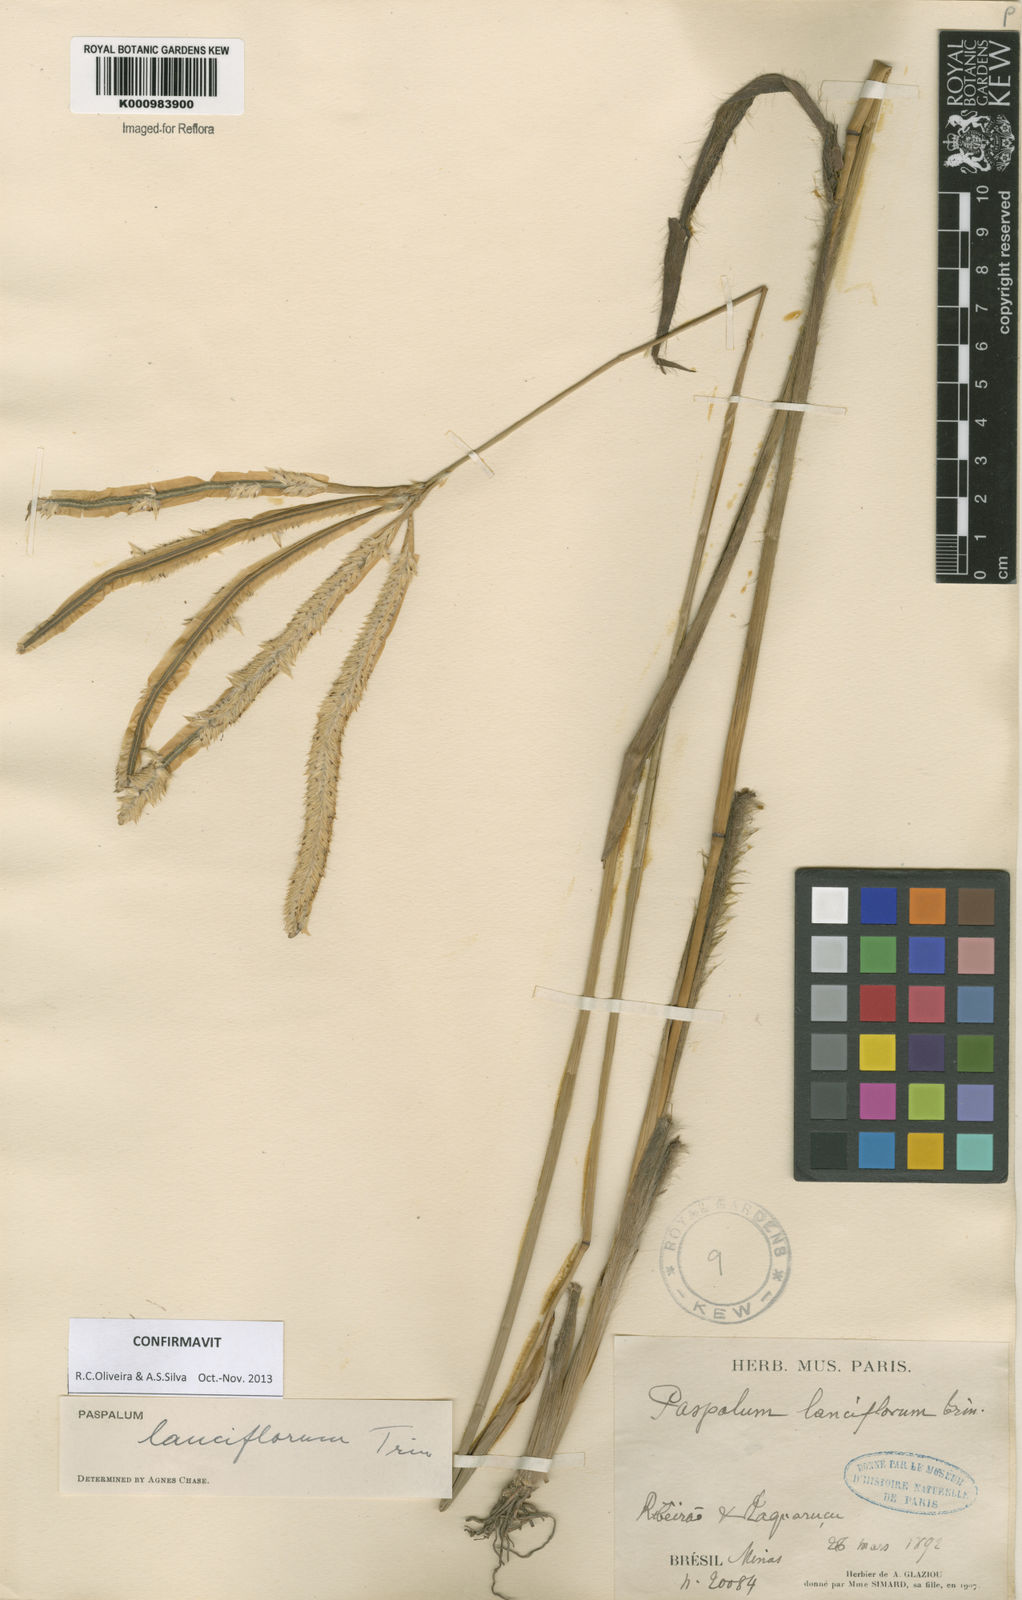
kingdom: Plantae
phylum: Tracheophyta
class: Liliopsida
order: Poales
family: Poaceae
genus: Paspalum
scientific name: Paspalum
